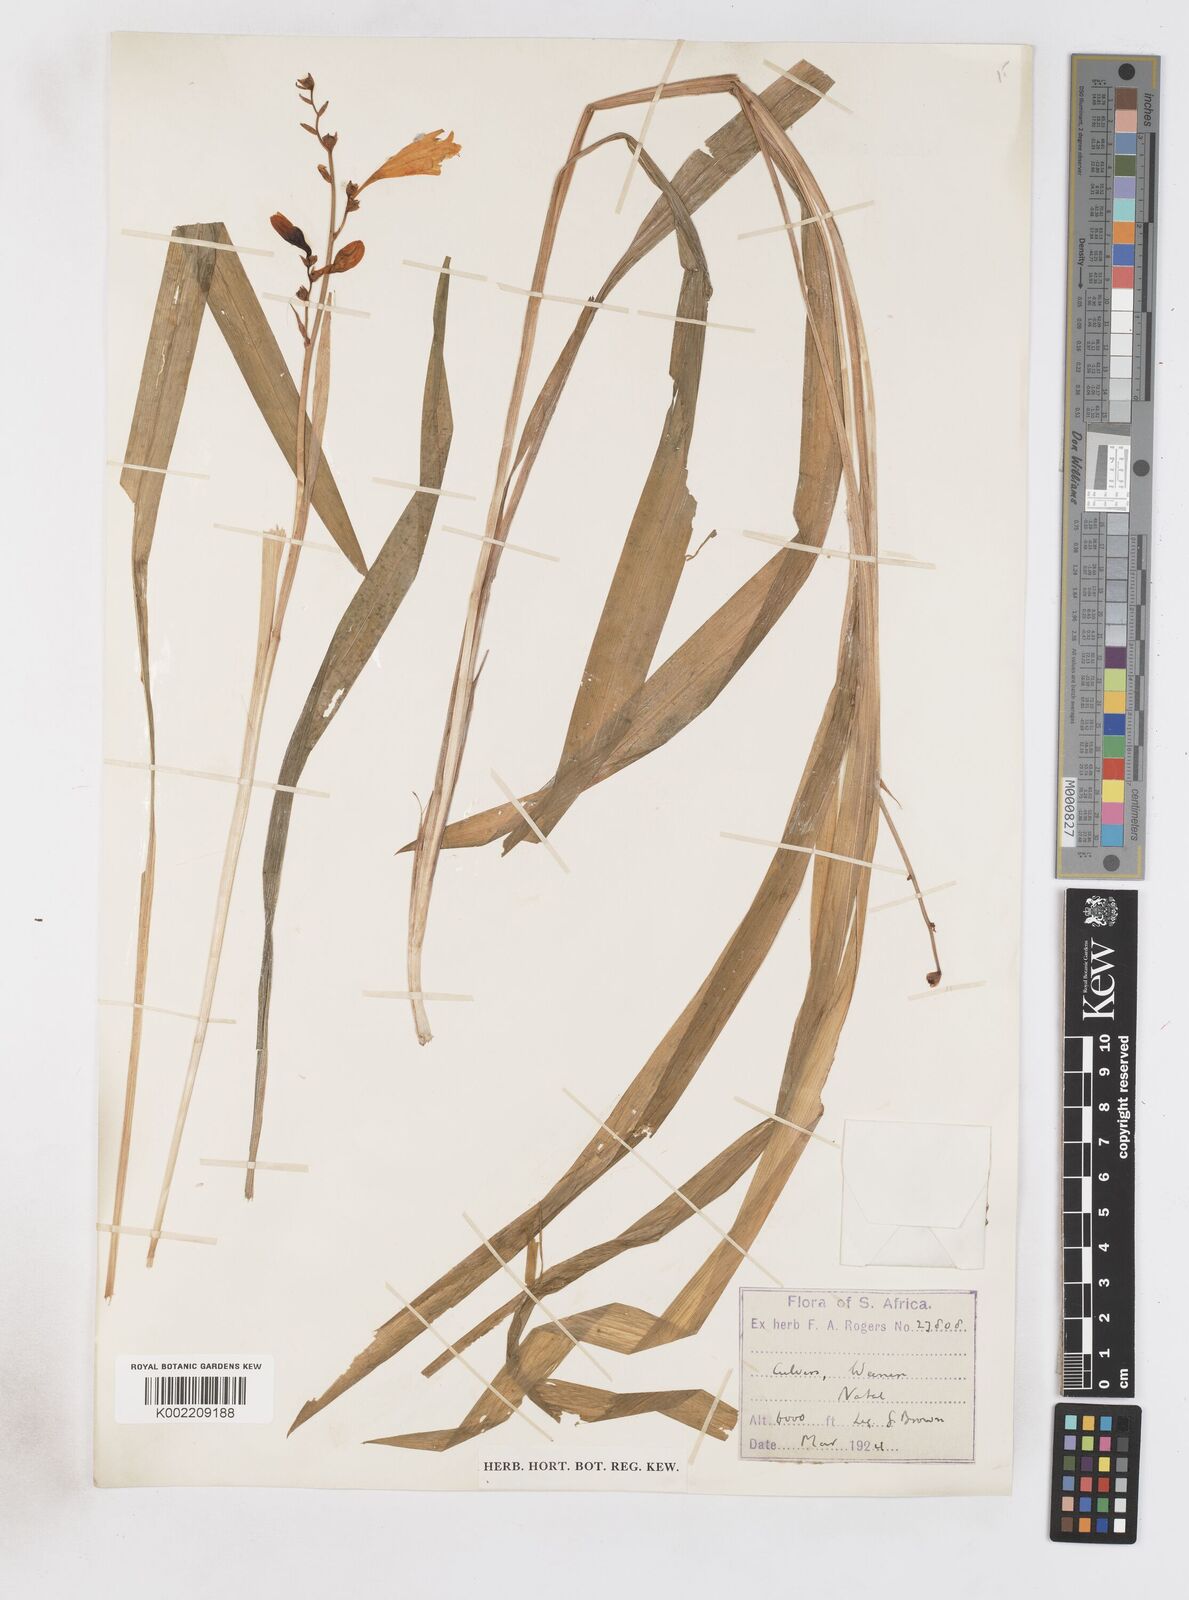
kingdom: Plantae
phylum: Tracheophyta
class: Liliopsida
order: Asparagales
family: Iridaceae
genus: Crocosmia
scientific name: Crocosmia aurea
